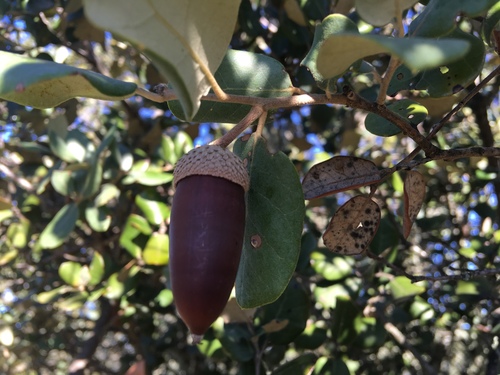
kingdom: Plantae
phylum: Tracheophyta
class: Magnoliopsida
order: Fagales
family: Fagaceae
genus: Quercus
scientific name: Quercus rotundifolia
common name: Holm oak
